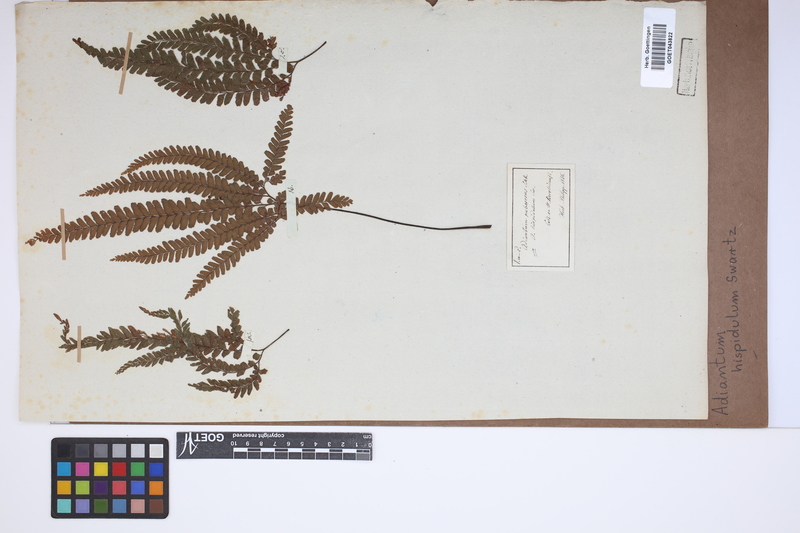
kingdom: Plantae
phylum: Tracheophyta
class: Polypodiopsida
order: Polypodiales
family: Pteridaceae
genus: Adiantum
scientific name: Adiantum hispidulum
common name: Rough maidenhair
